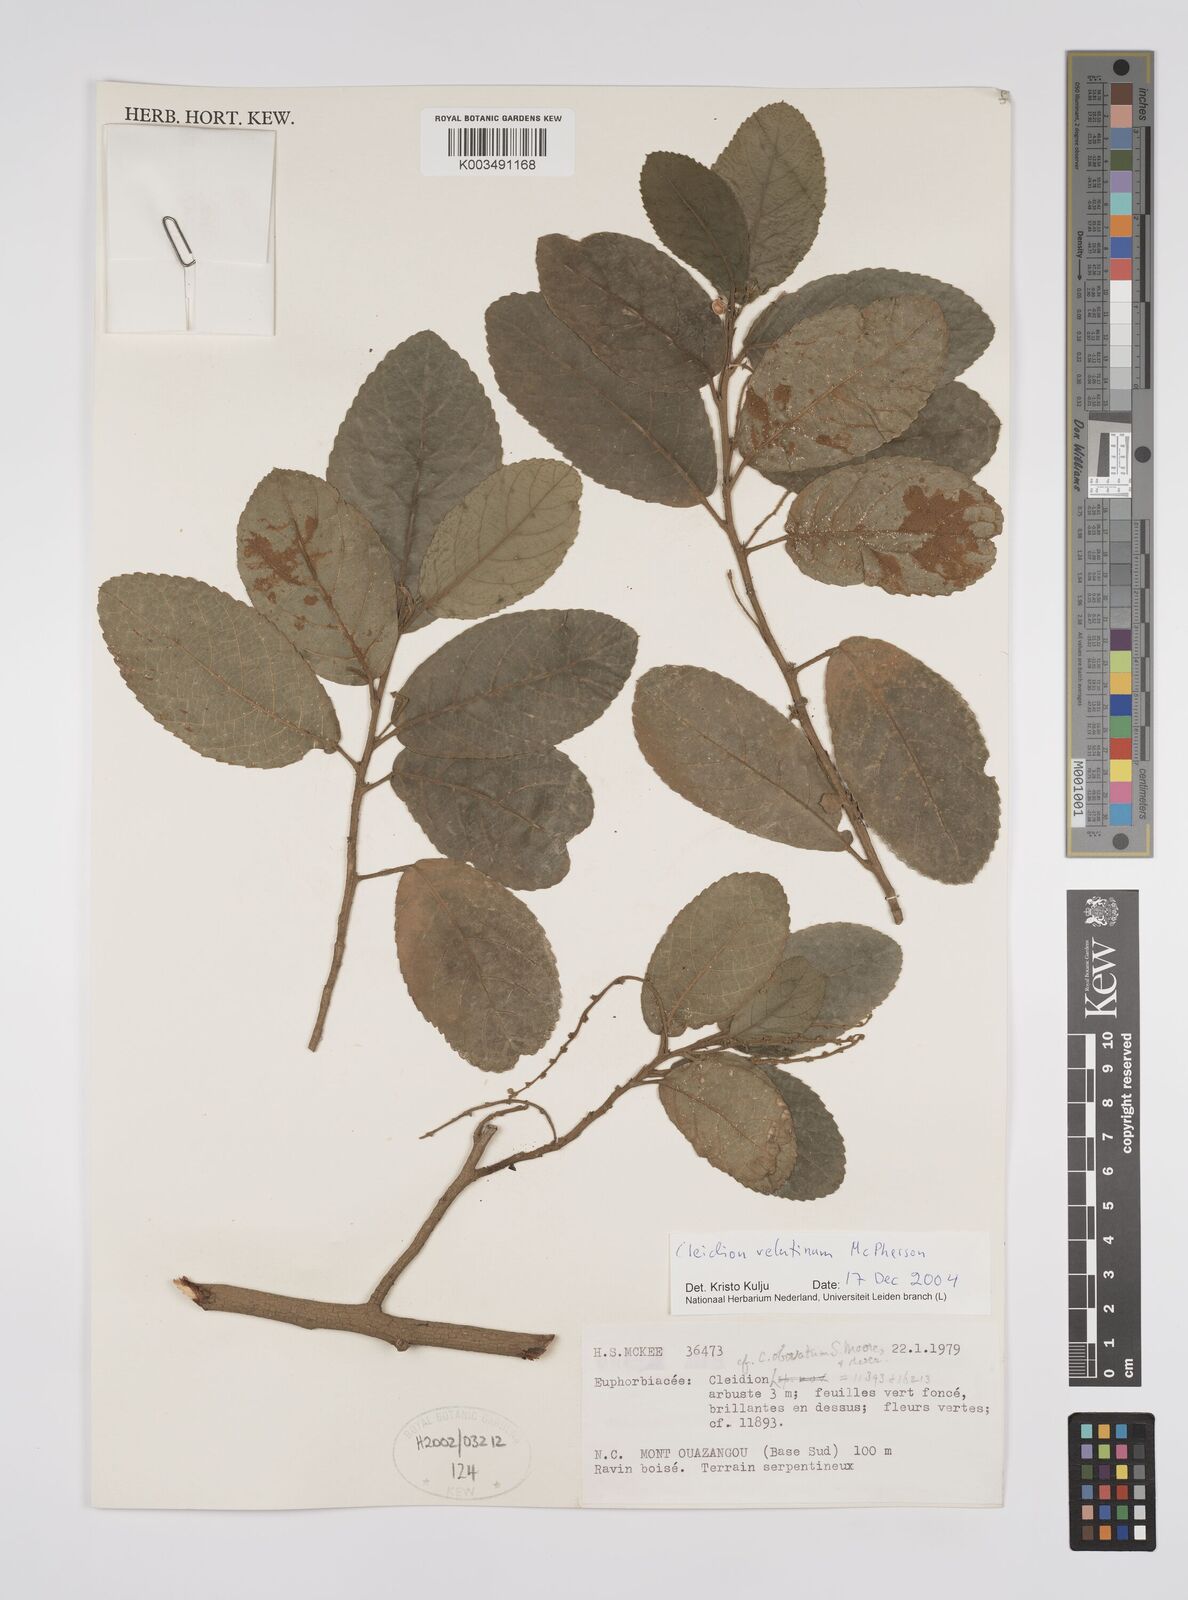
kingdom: Plantae
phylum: Tracheophyta
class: Magnoliopsida
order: Malpighiales
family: Euphorbiaceae
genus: Cleidion
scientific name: Cleidion velutinum
